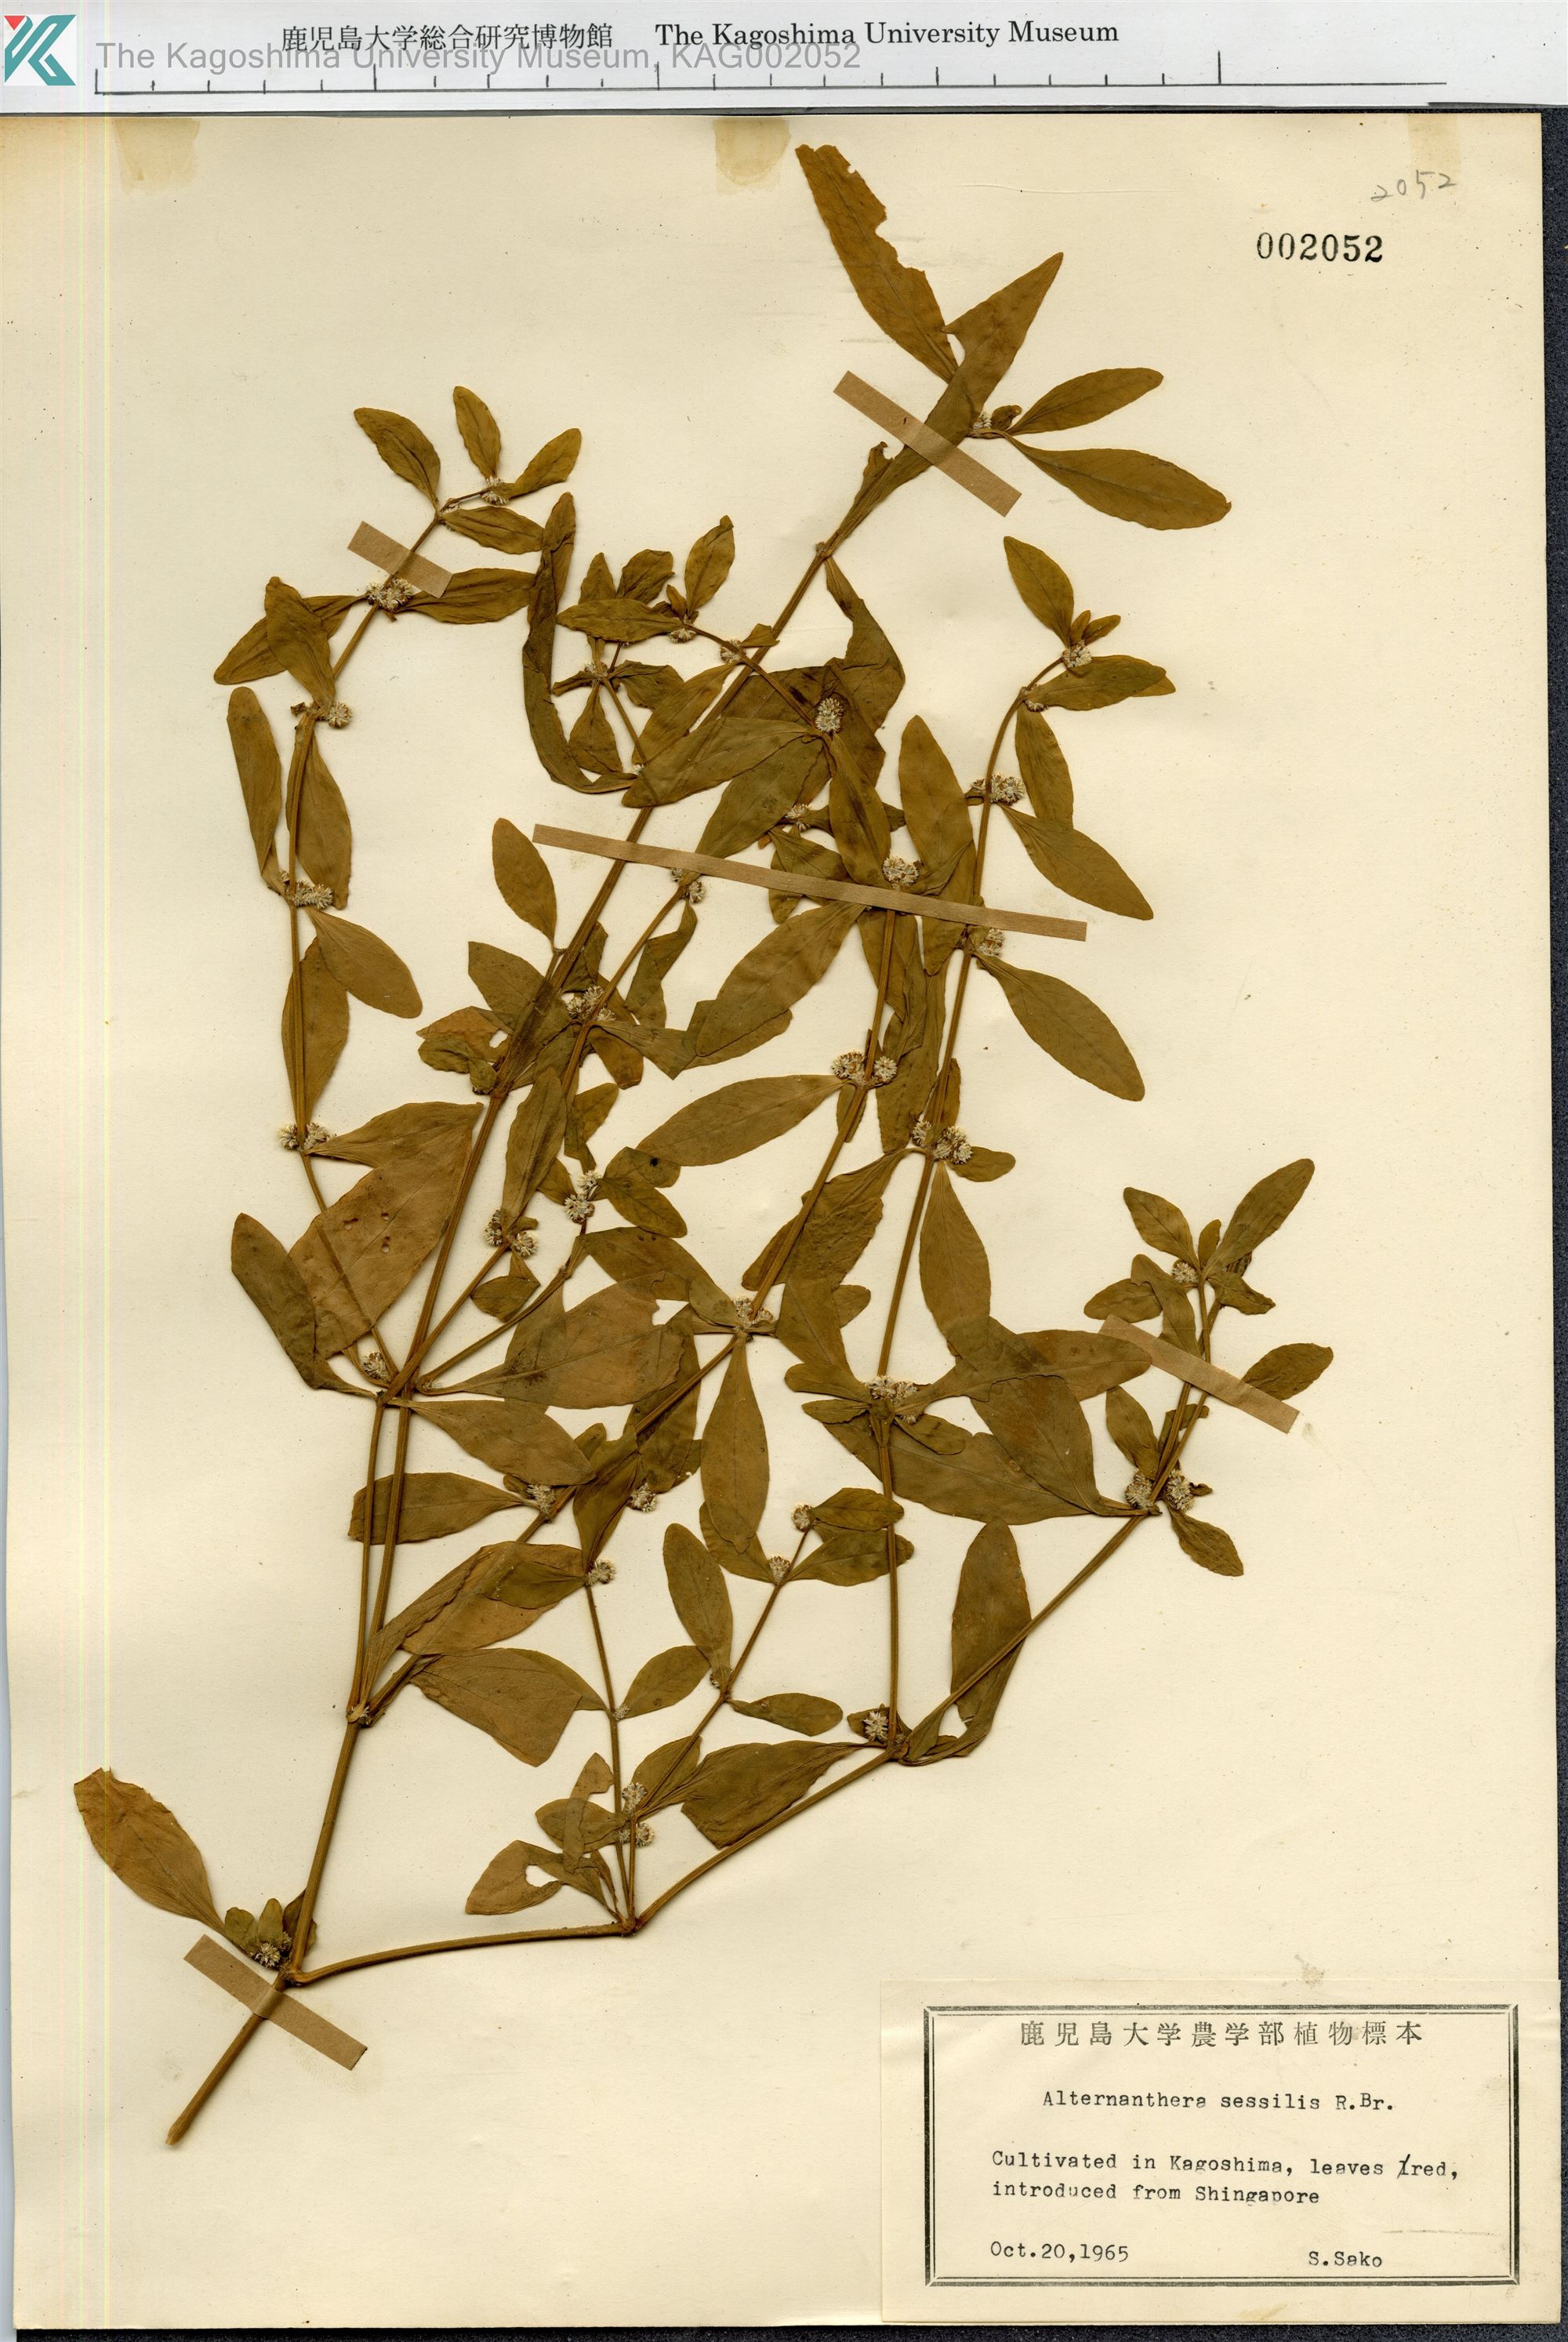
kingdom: Plantae
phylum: Tracheophyta
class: Magnoliopsida
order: Caryophyllales
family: Amaranthaceae
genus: Alternanthera
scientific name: Alternanthera sessilis
